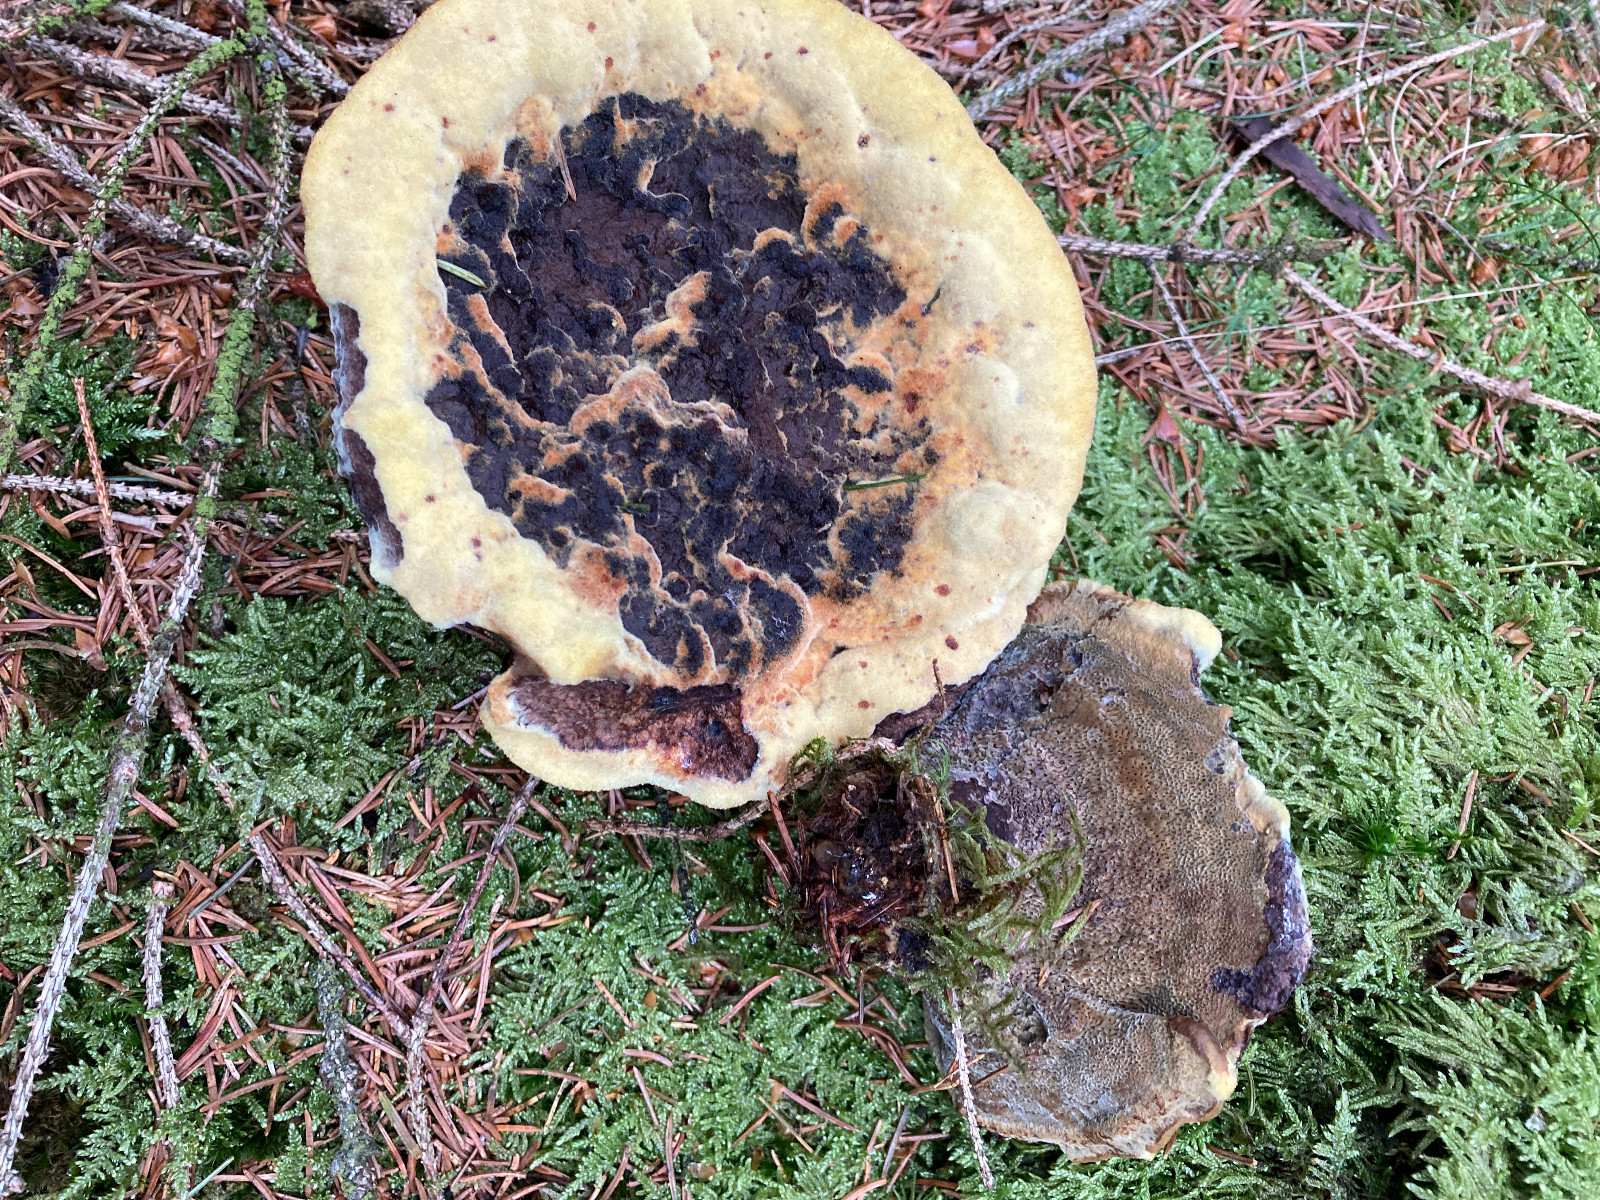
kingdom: Fungi
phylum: Basidiomycota
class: Agaricomycetes
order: Polyporales
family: Laetiporaceae
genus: Phaeolus
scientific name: Phaeolus schweinitzii
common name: brunporesvamp
